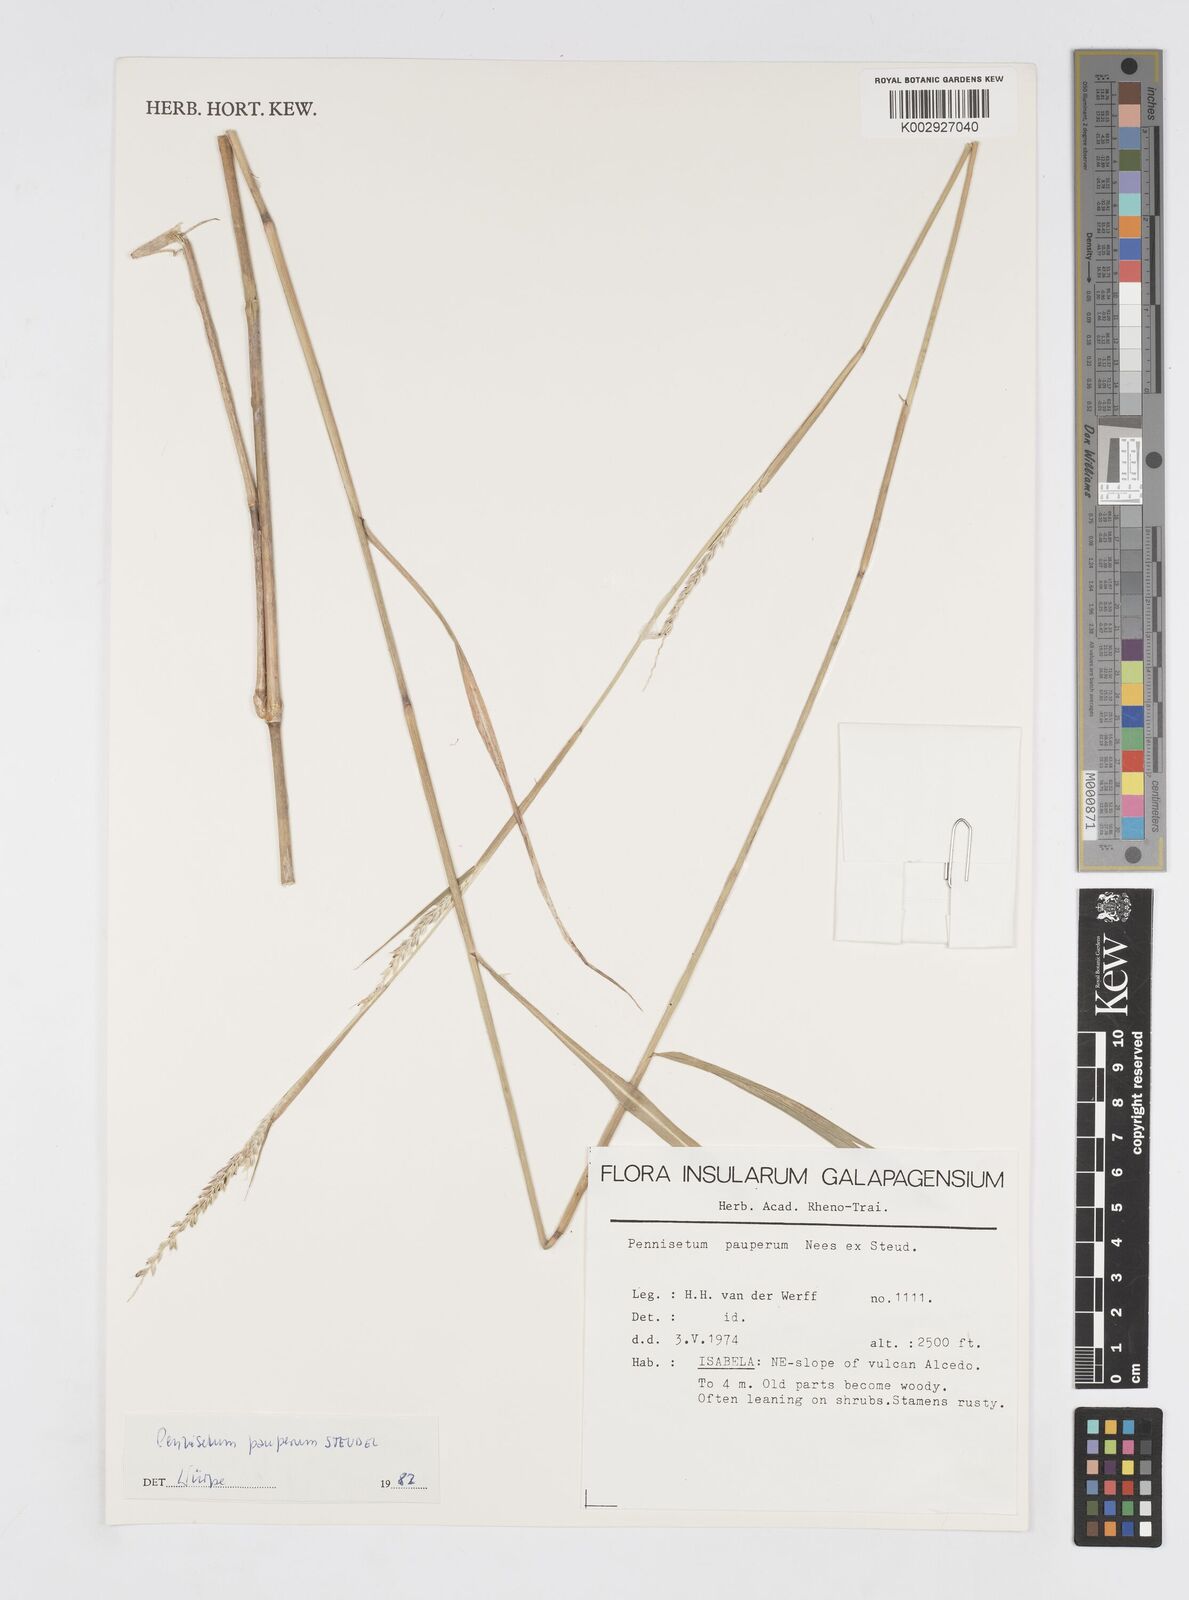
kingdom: Plantae
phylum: Tracheophyta
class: Liliopsida
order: Poales
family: Poaceae
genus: Cenchrus
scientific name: Cenchrus pauper
